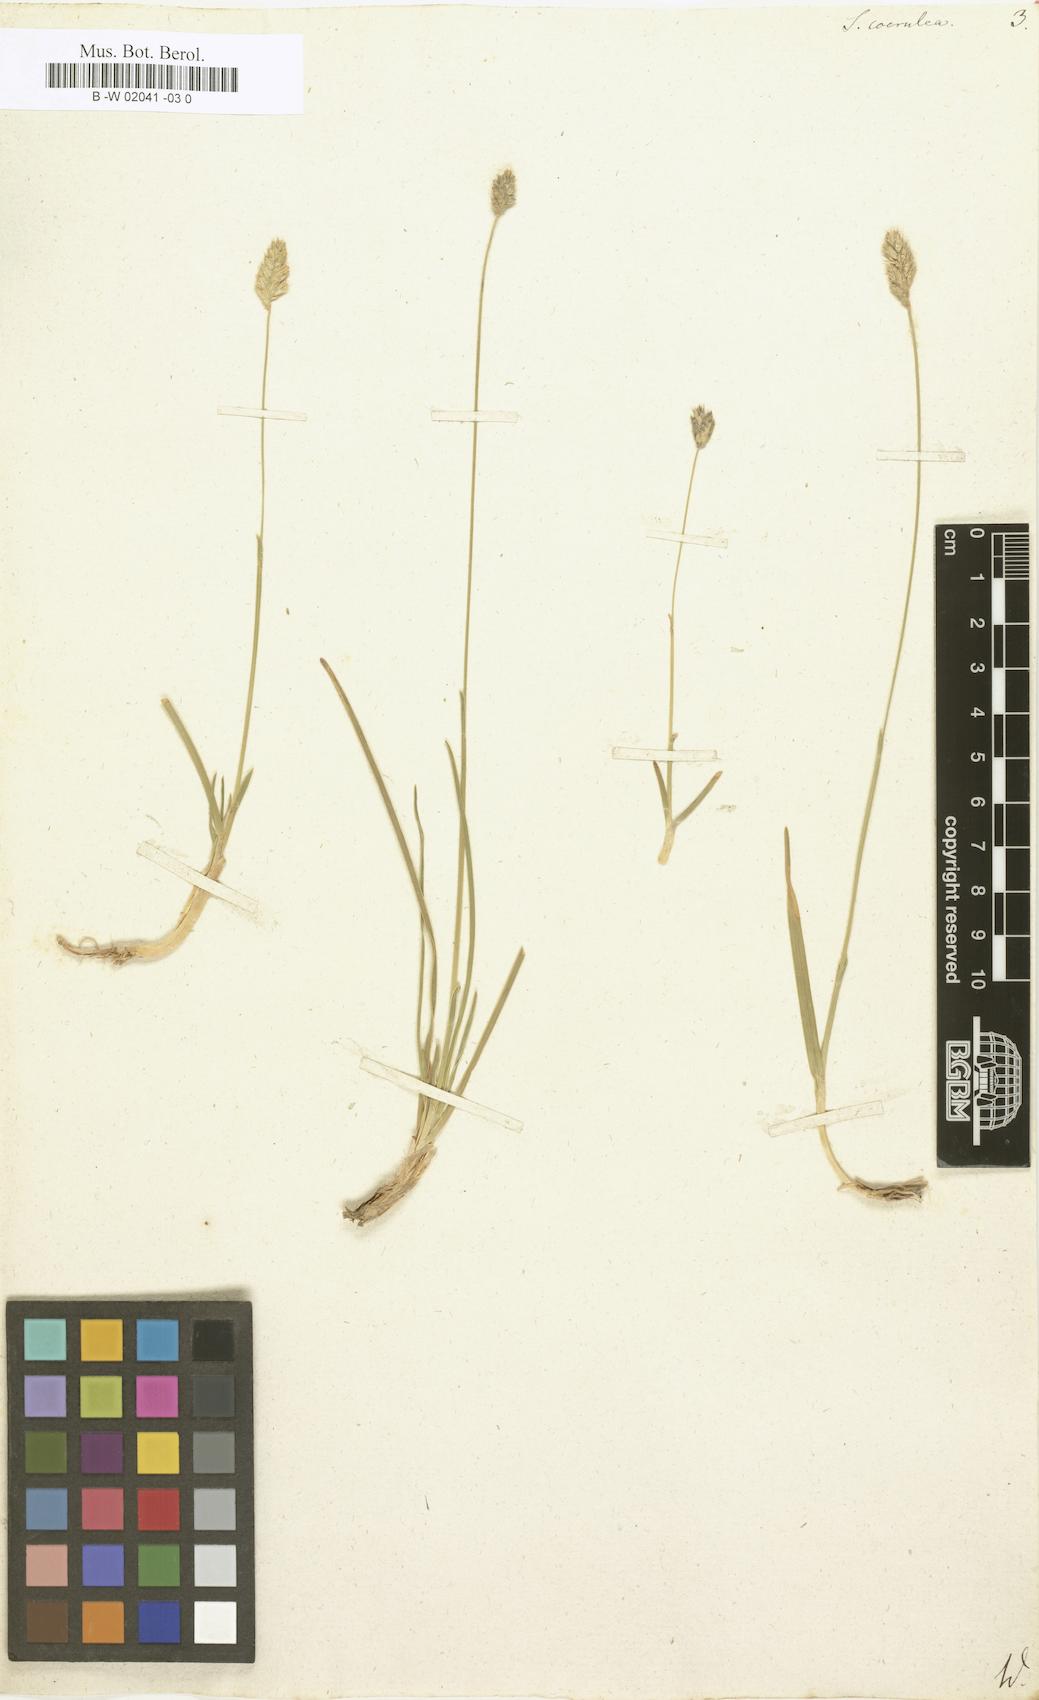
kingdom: Plantae
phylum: Tracheophyta
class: Liliopsida
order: Poales
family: Poaceae
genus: Sesleria
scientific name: Sesleria caerulea
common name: Blue moor-grass
